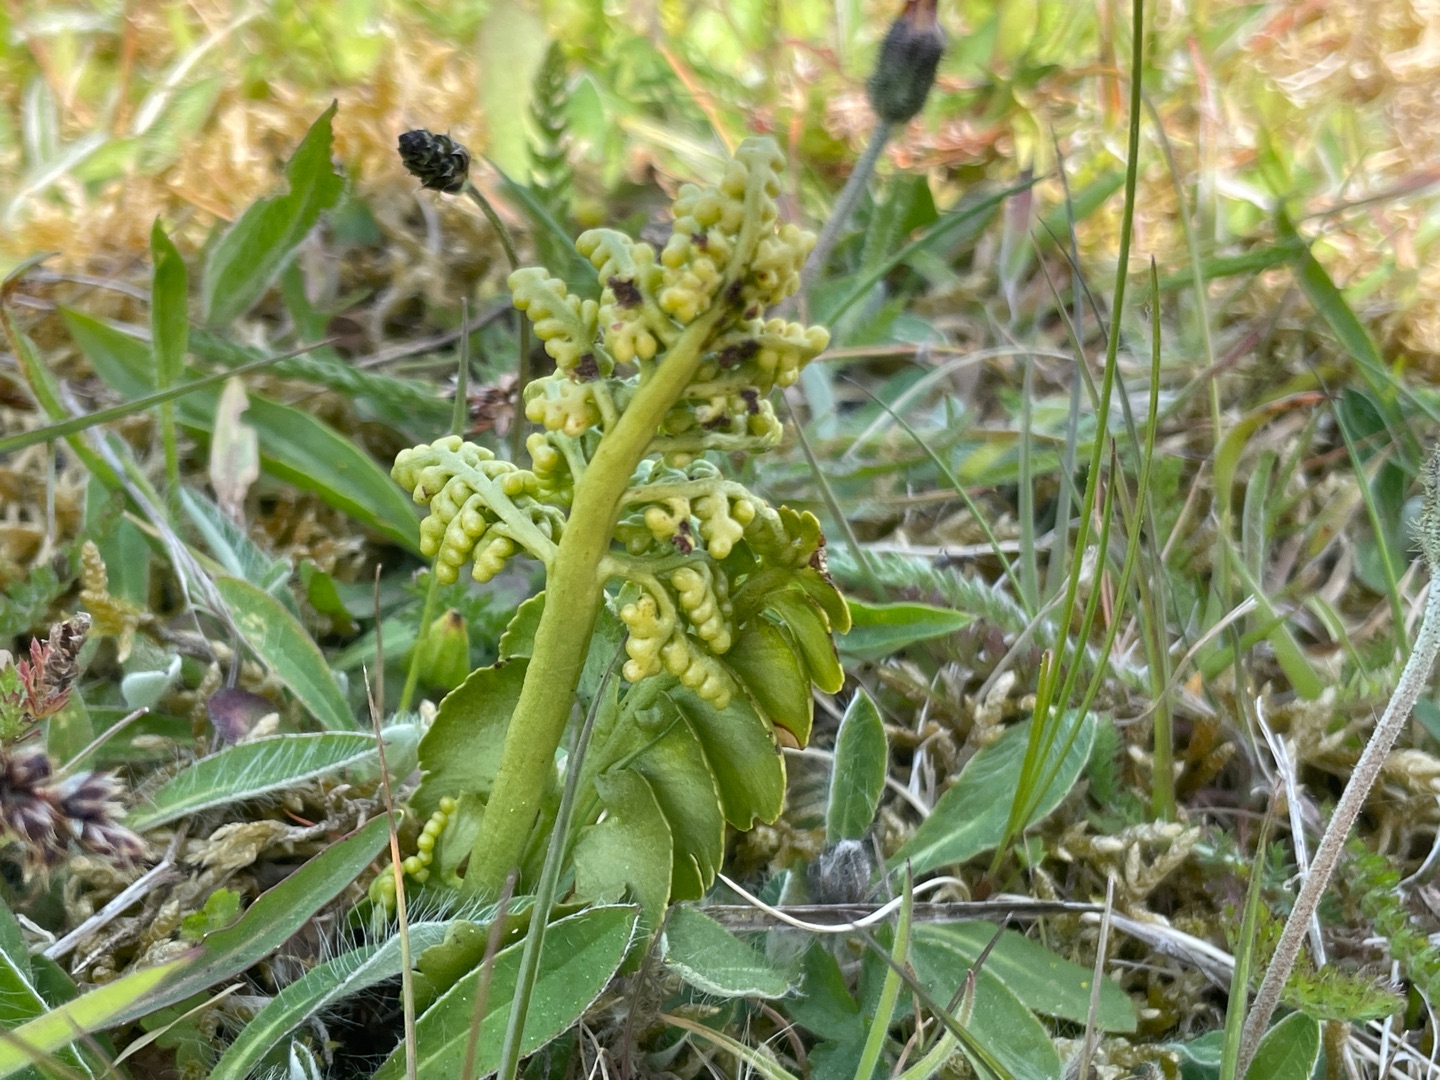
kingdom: Plantae
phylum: Tracheophyta
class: Polypodiopsida
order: Ophioglossales
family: Ophioglossaceae
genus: Botrychium
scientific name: Botrychium lunaria
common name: Almindelig månerude
